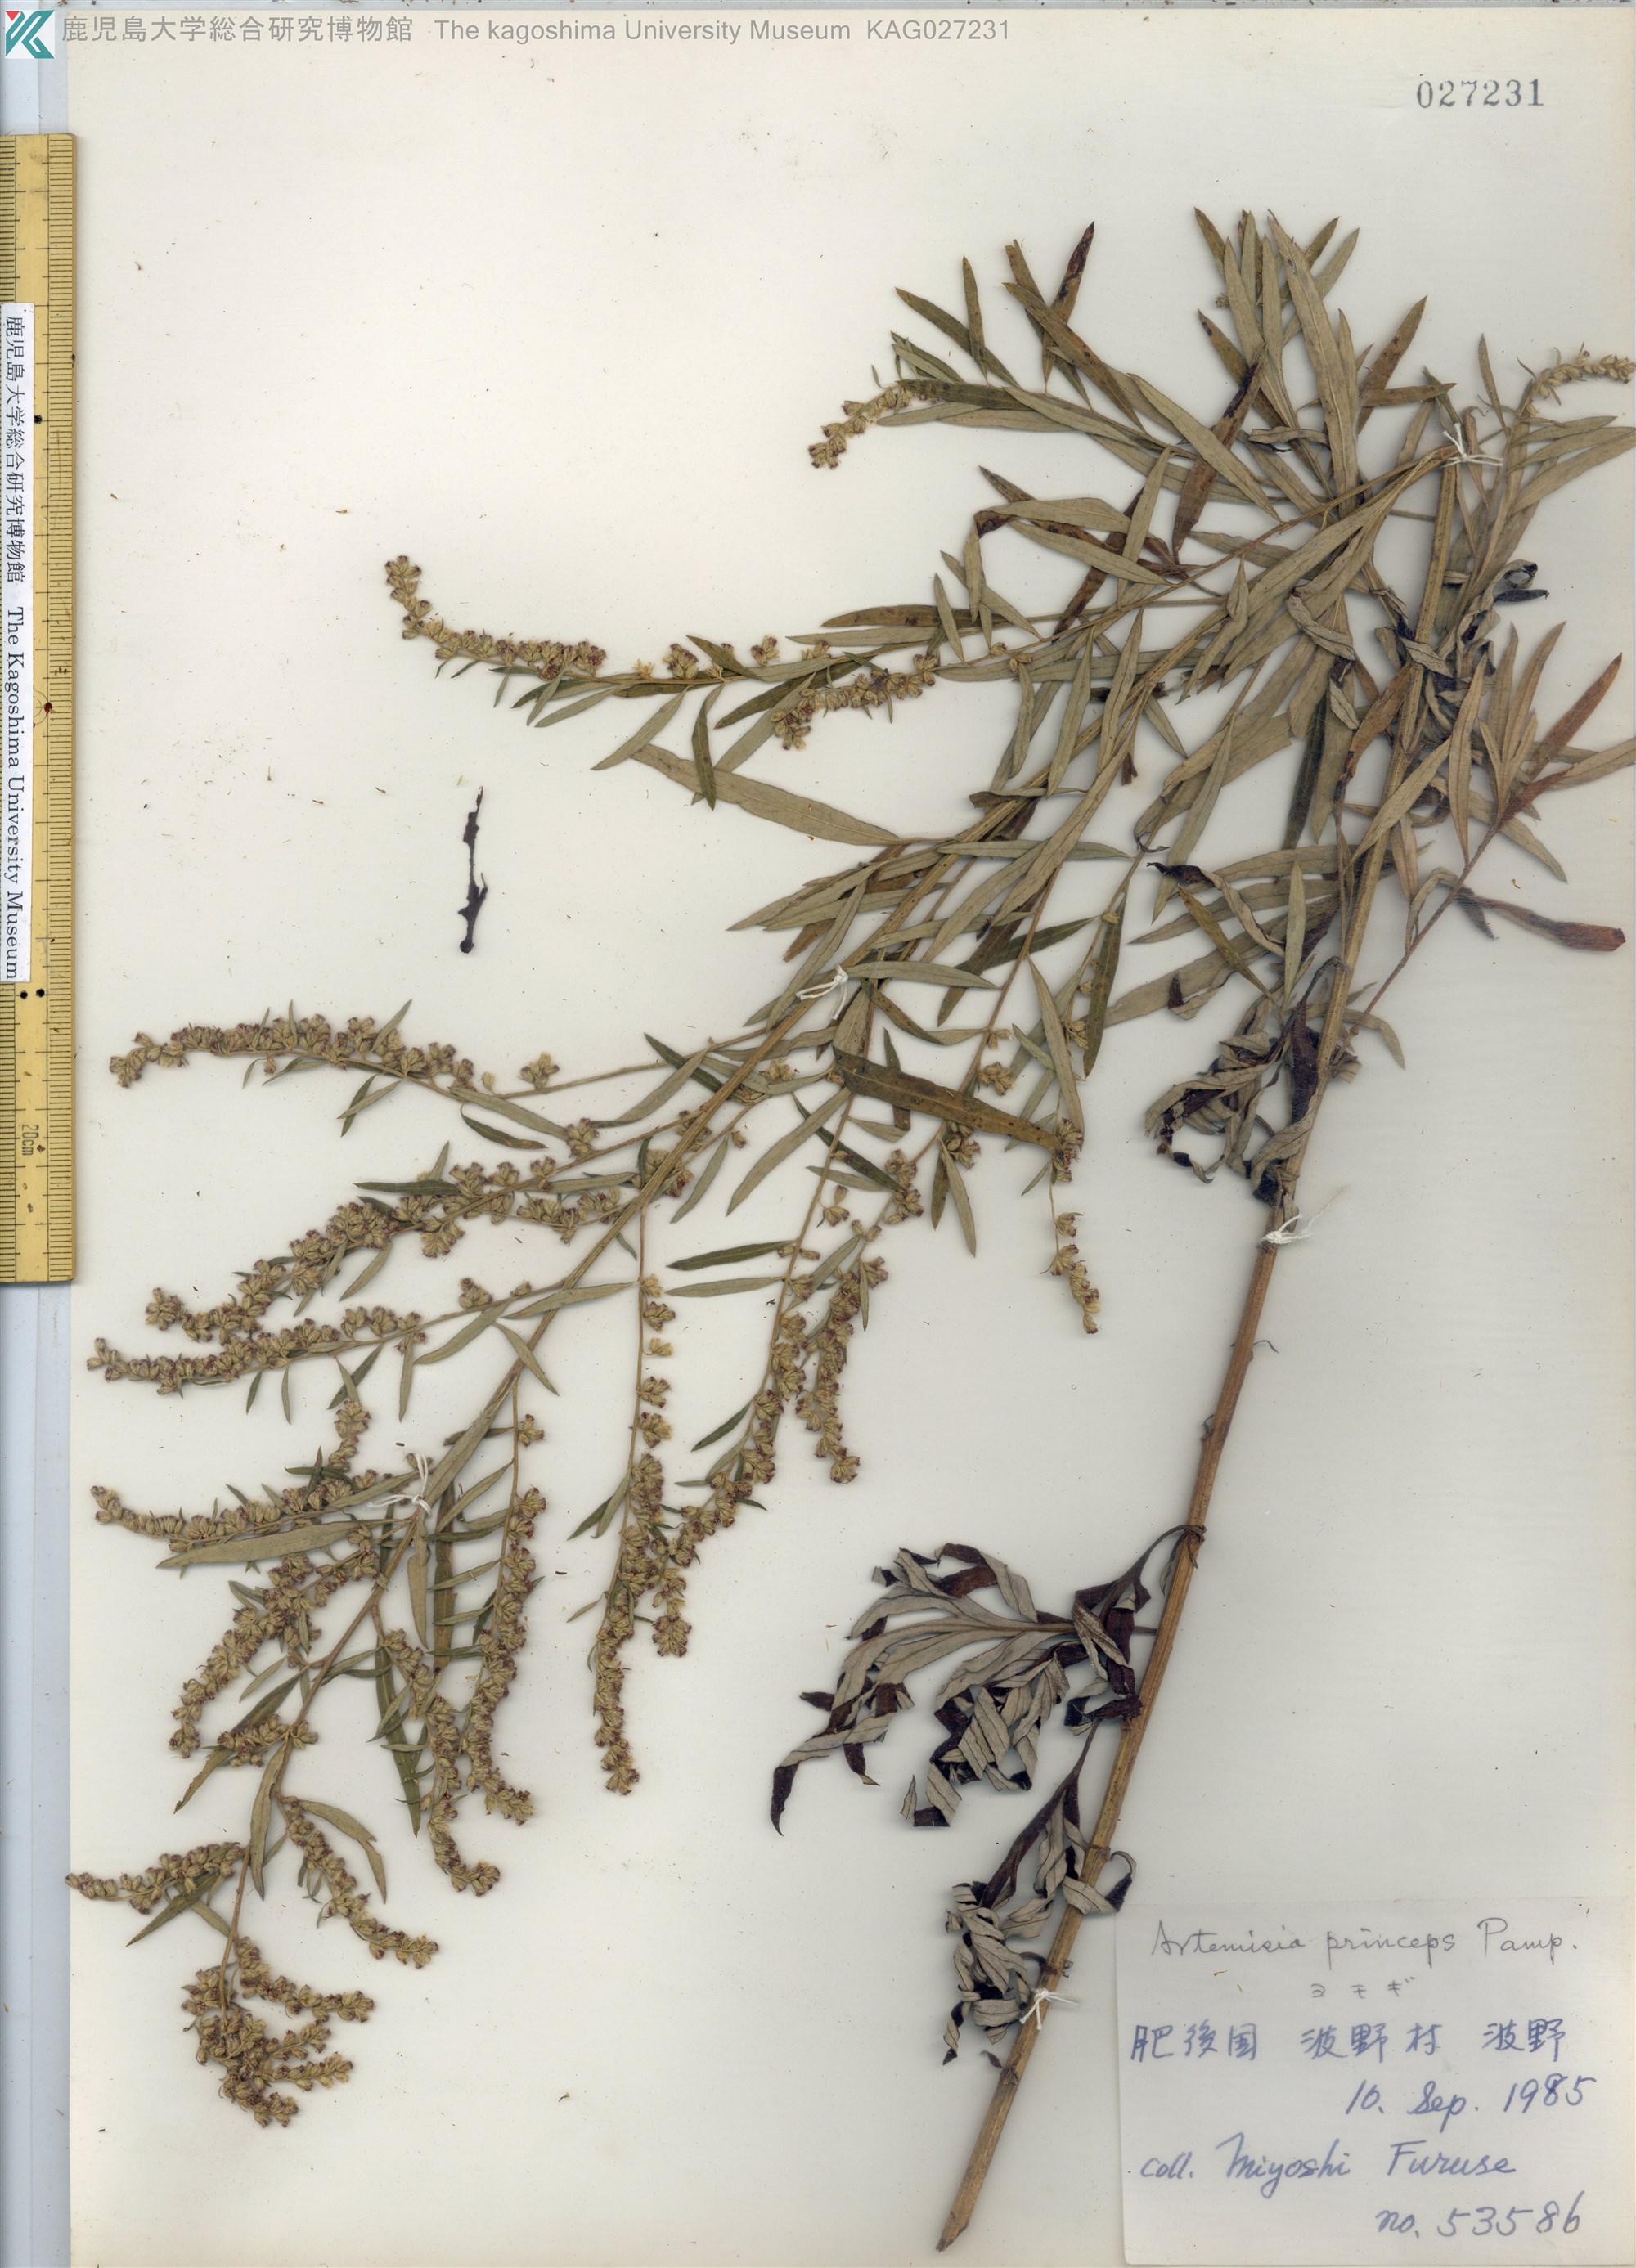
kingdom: Plantae
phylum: Tracheophyta
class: Magnoliopsida
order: Asterales
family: Asteraceae
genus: Artemisia
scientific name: Artemisia princeps
